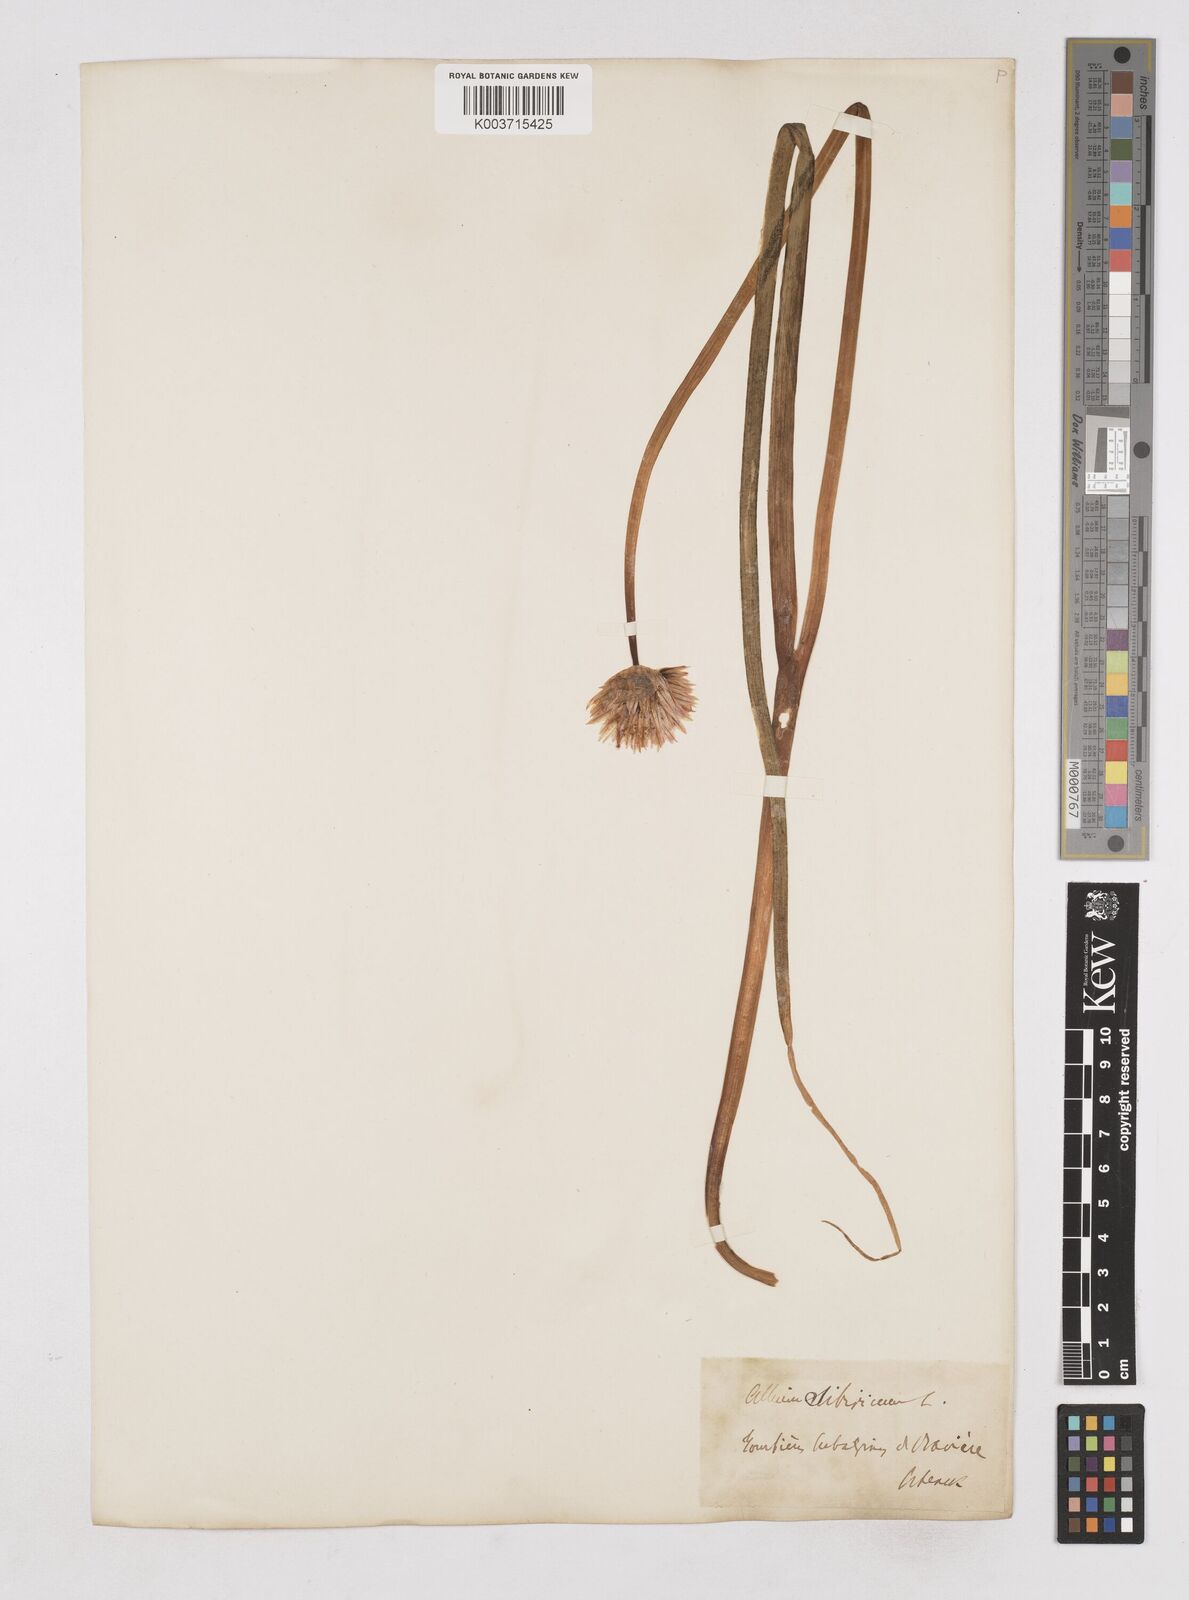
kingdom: Plantae
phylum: Tracheophyta
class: Liliopsida
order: Asparagales
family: Amaryllidaceae
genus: Allium
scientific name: Allium schoenoprasum
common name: Chives
